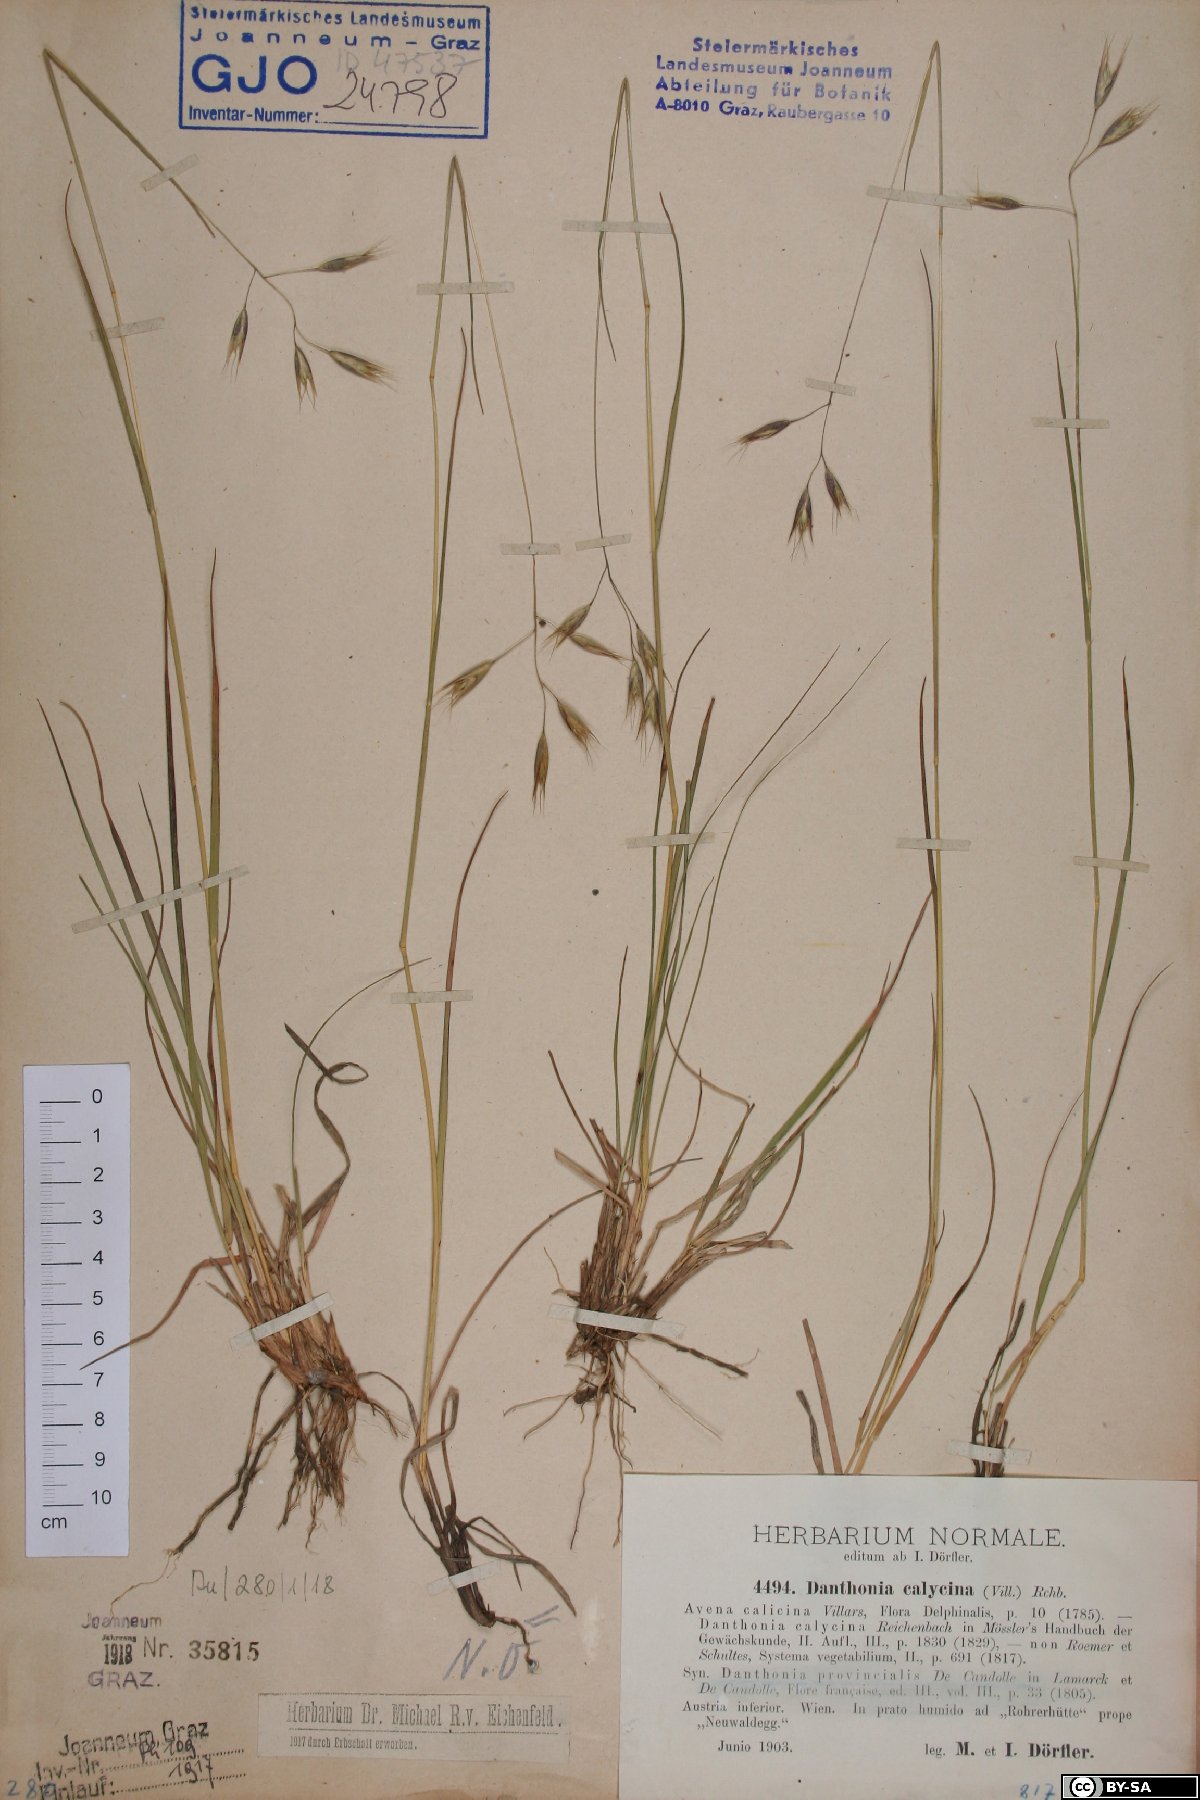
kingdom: Plantae
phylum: Tracheophyta
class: Liliopsida
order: Poales
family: Poaceae
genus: Danthonia
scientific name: Danthonia alpina
